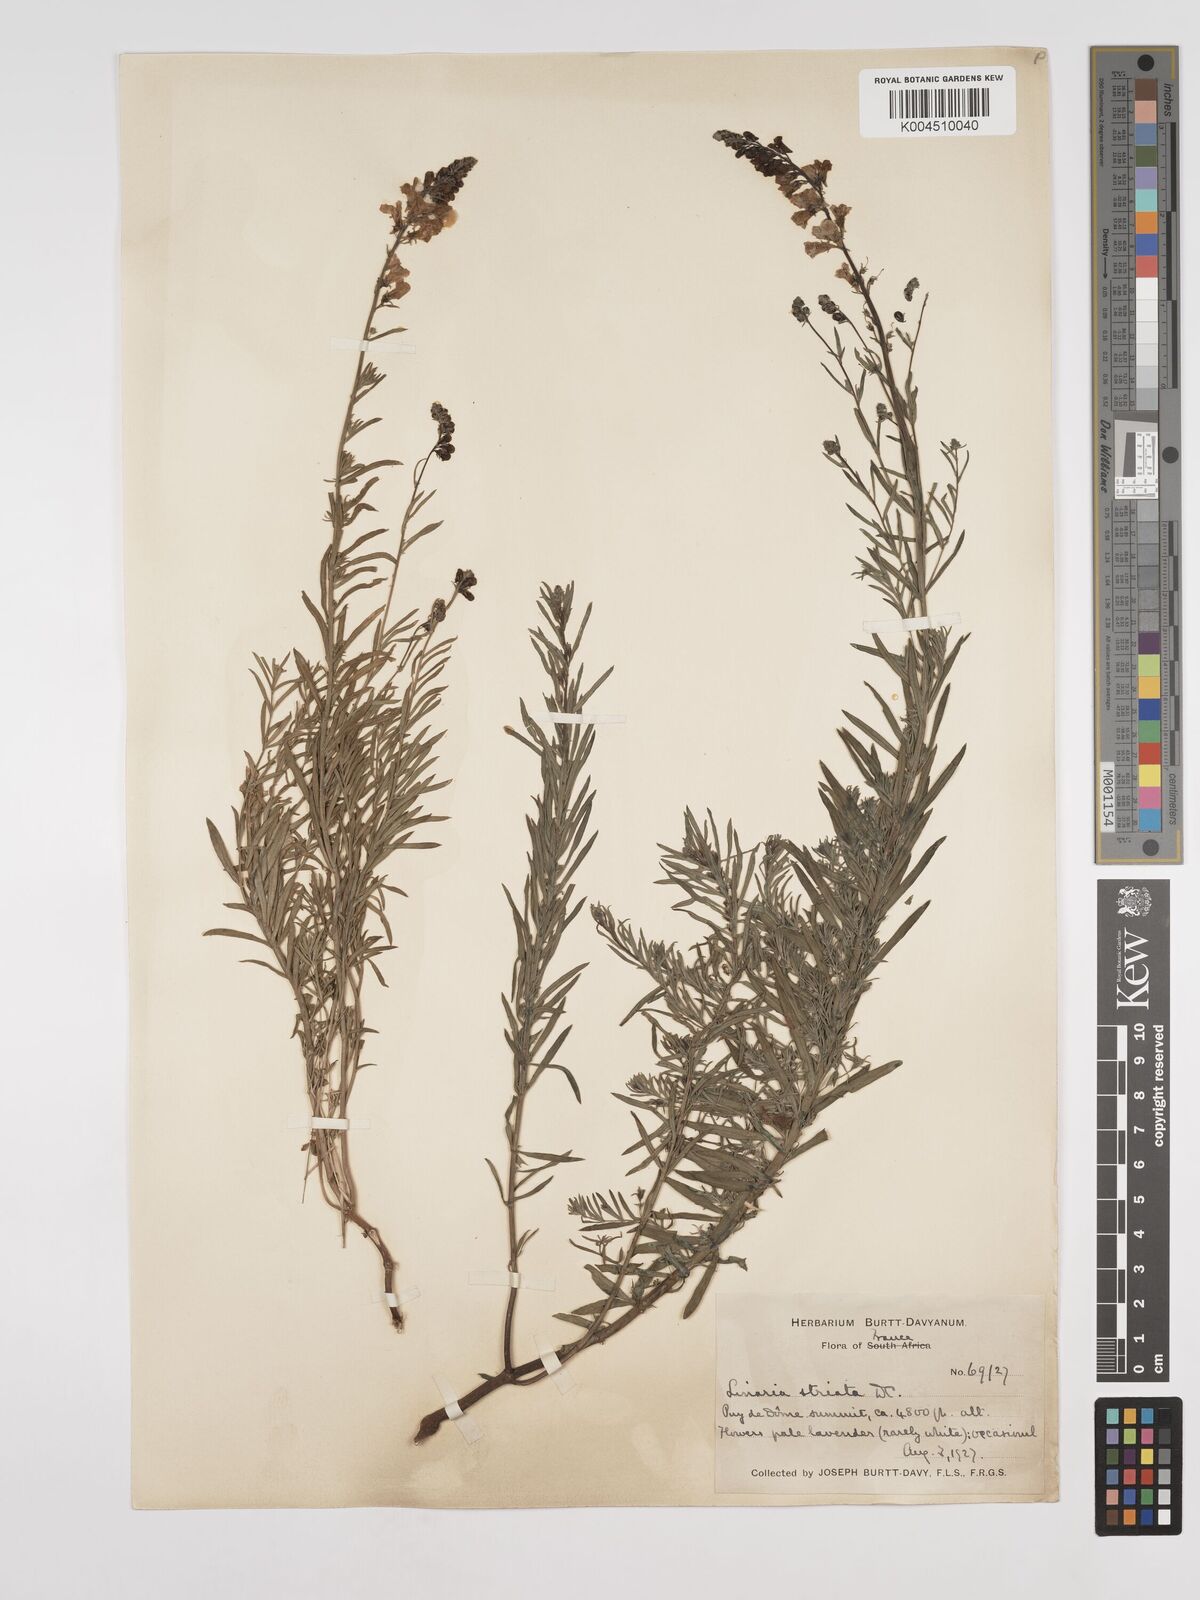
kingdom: Plantae
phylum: Tracheophyta
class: Magnoliopsida
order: Lamiales
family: Plantaginaceae
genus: Linaria
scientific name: Linaria repens
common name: Pale toadflax
